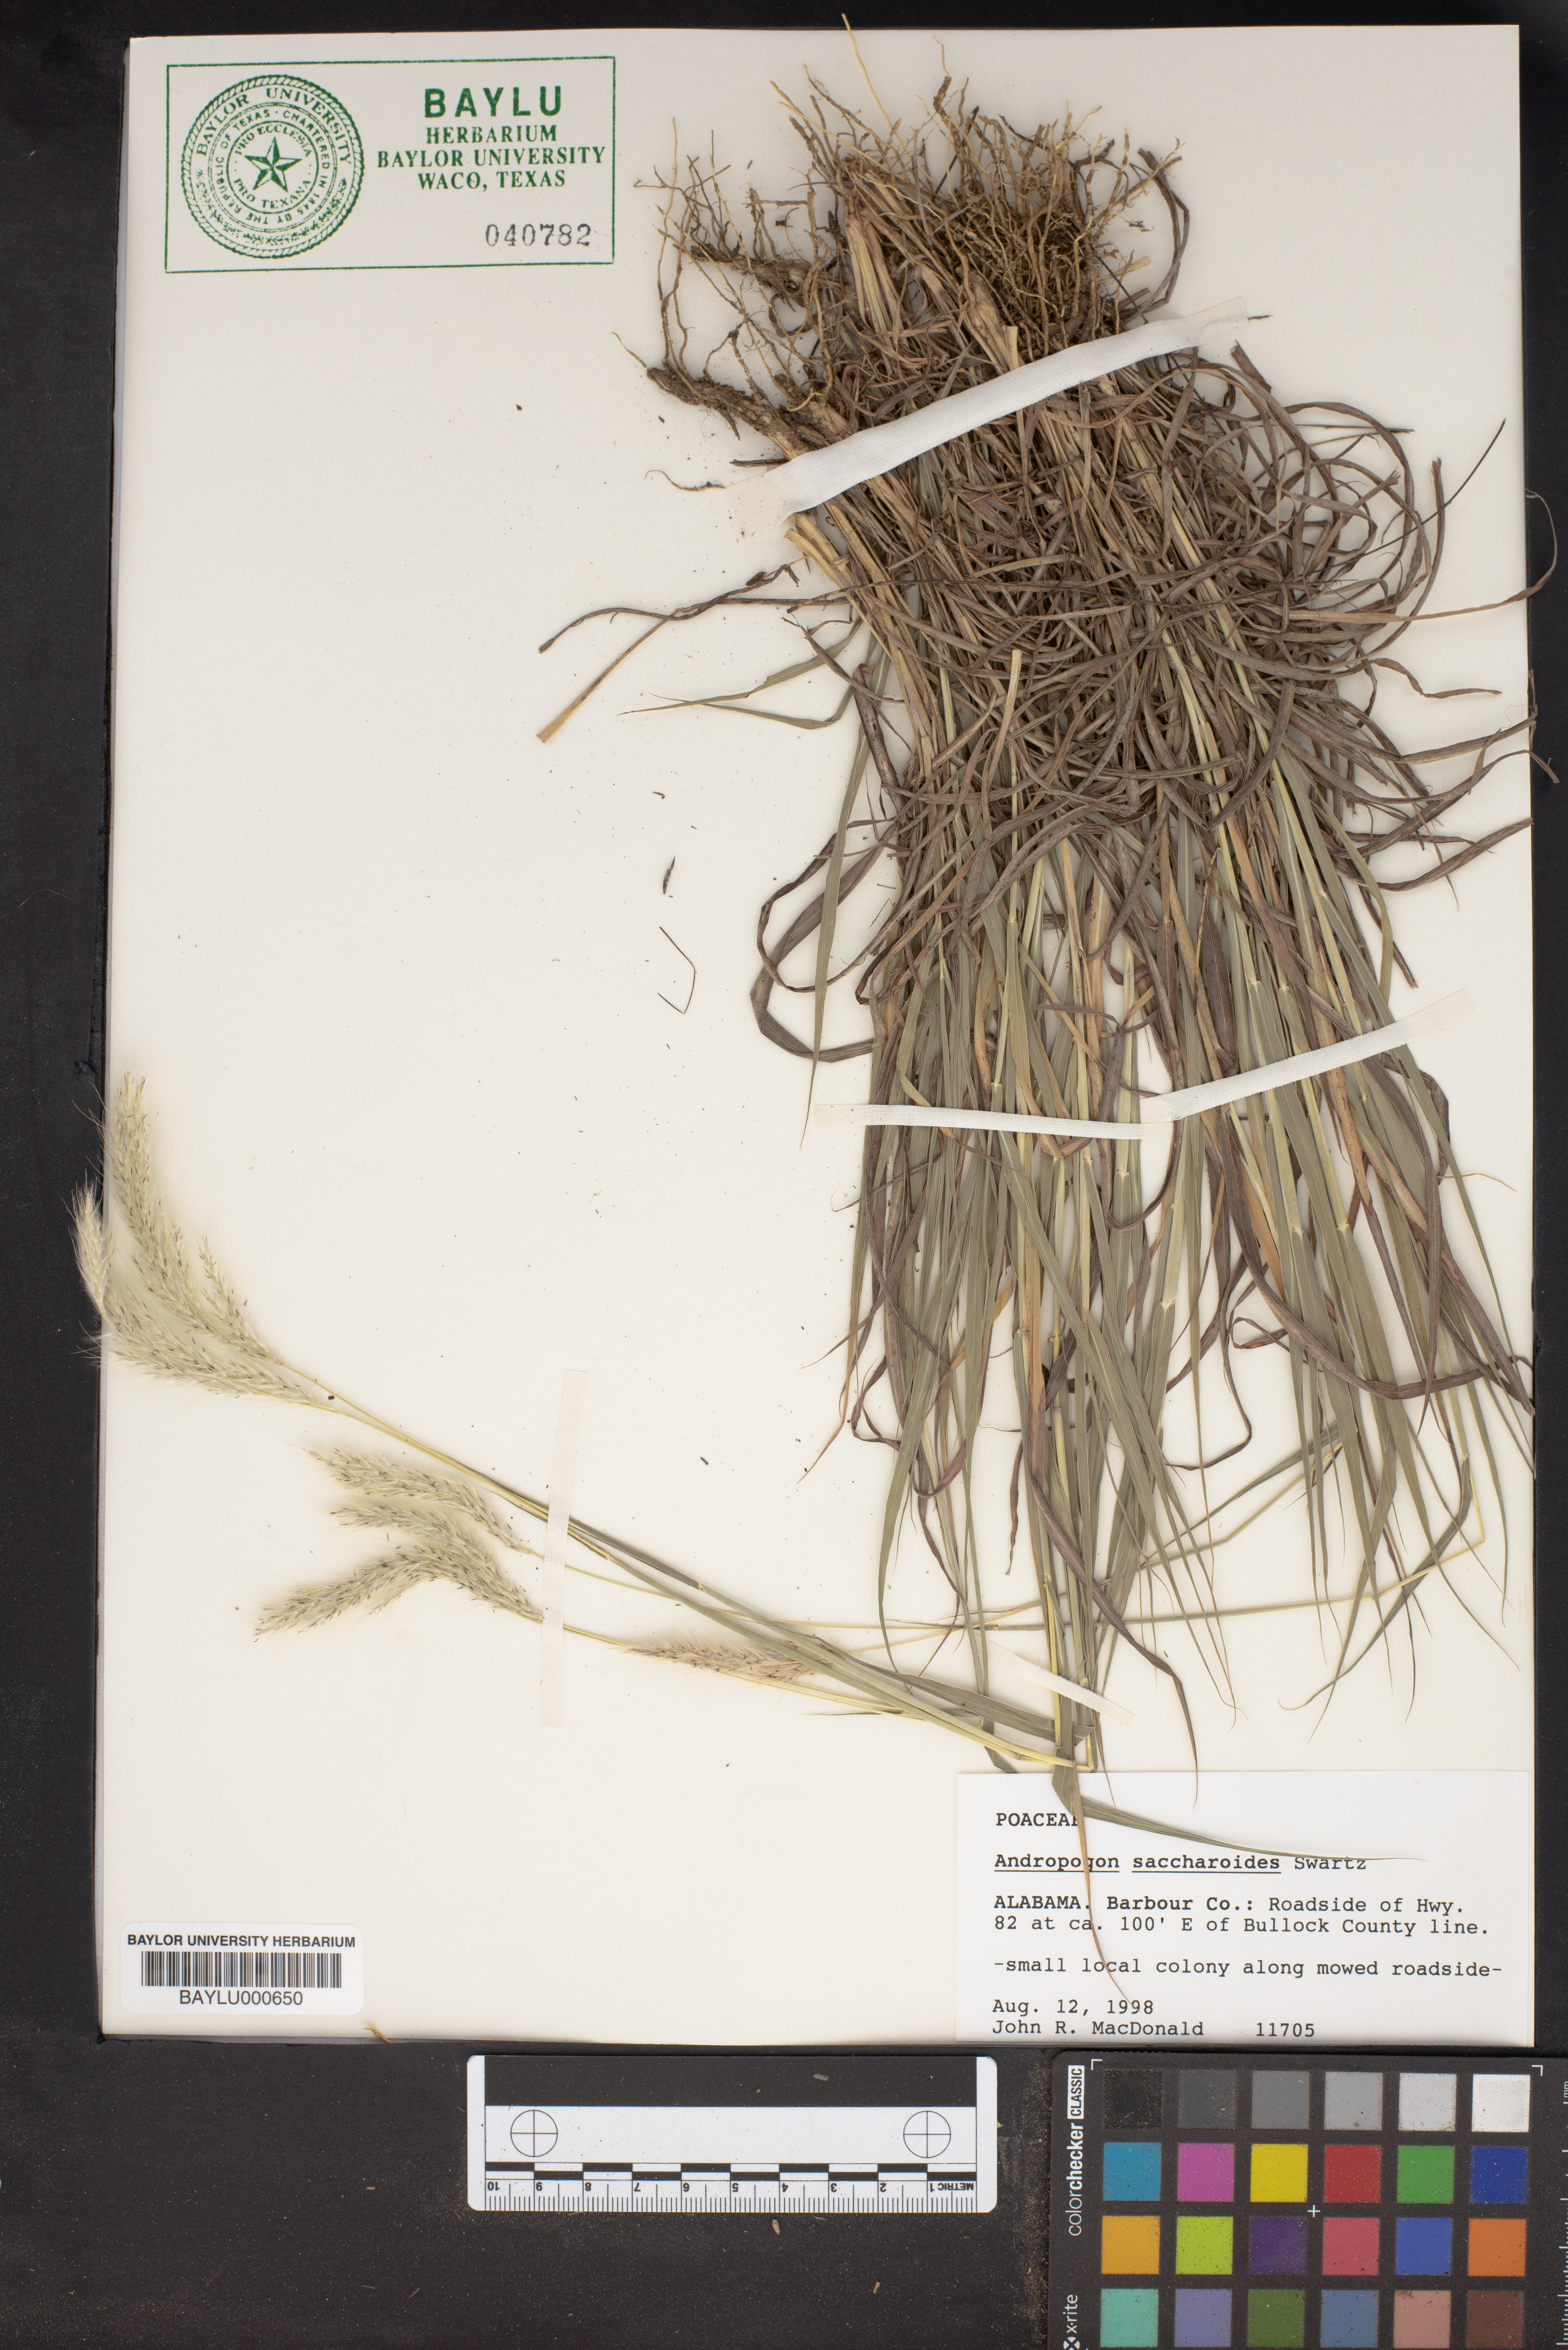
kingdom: Plantae
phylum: Tracheophyta
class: Liliopsida
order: Poales
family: Poaceae
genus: Bothriochloa
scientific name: Bothriochloa saccharoides
